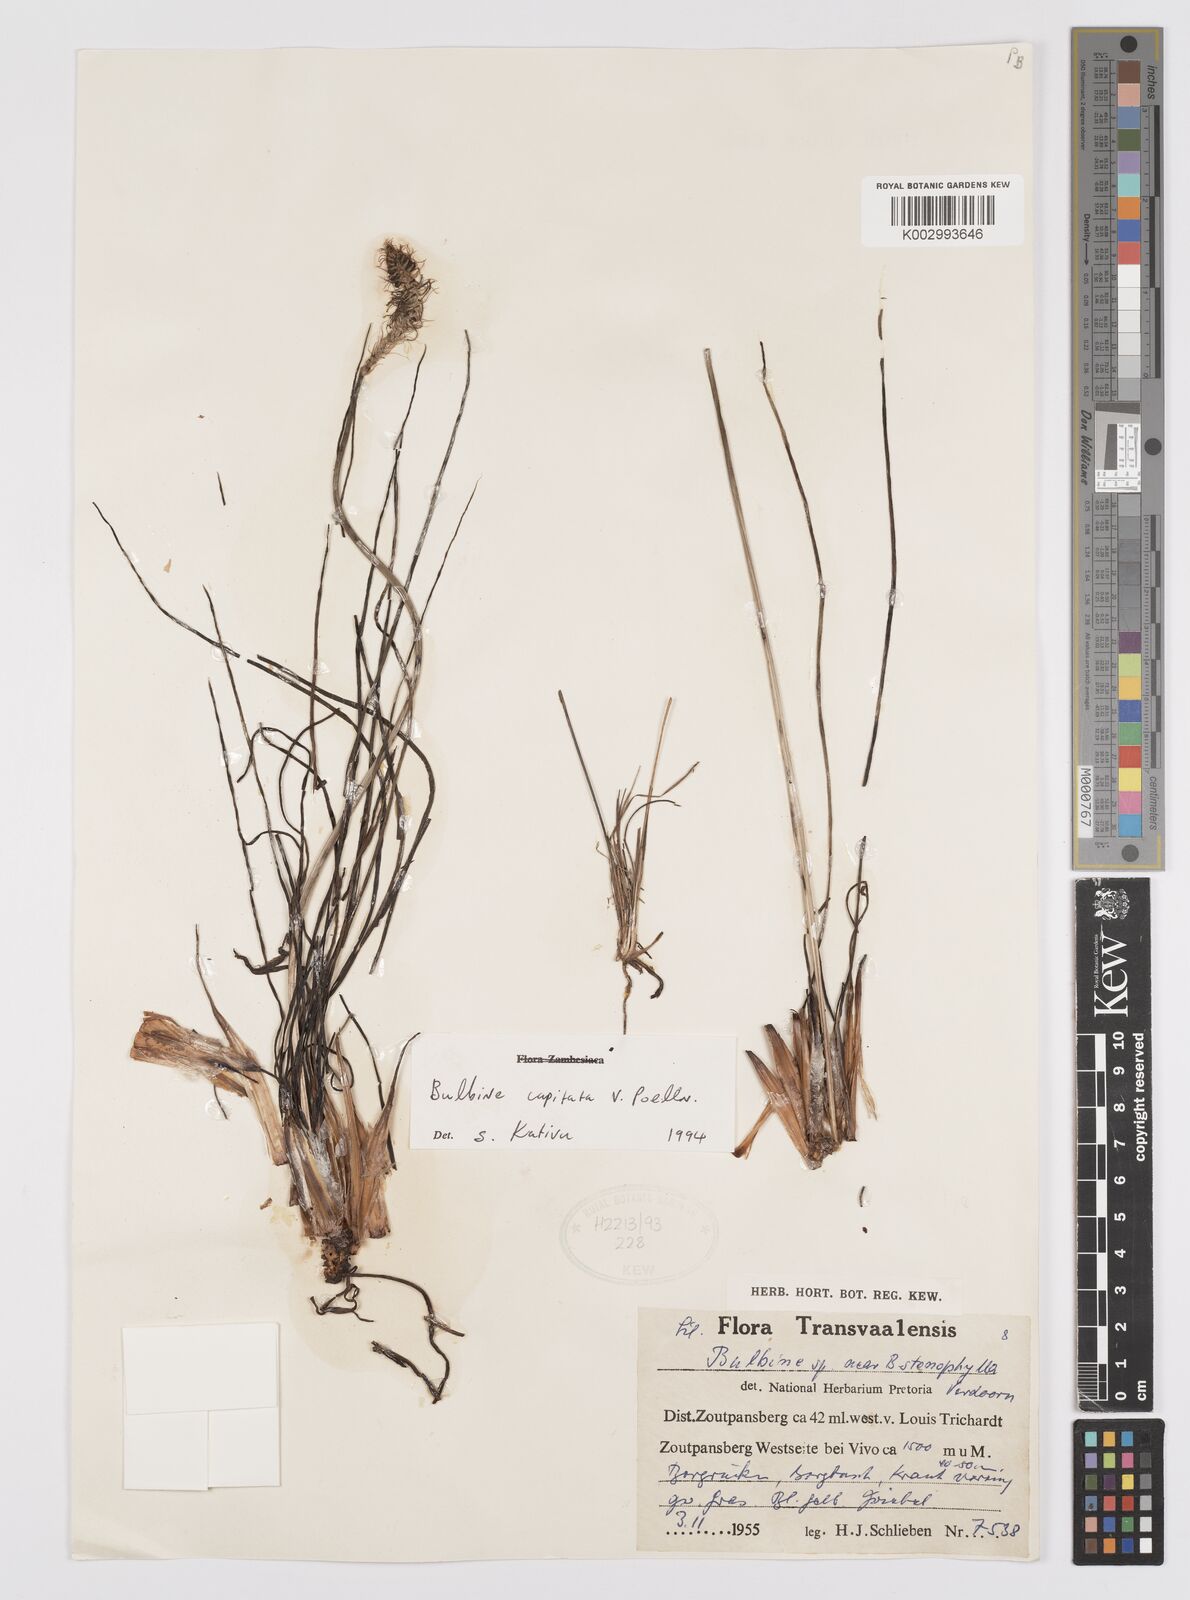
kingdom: Plantae
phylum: Tracheophyta
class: Liliopsida
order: Asparagales
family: Asphodelaceae
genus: Bulbine
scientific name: Bulbine capitata
